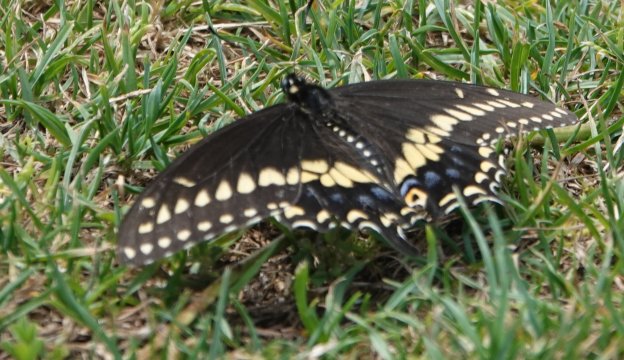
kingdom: Animalia
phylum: Arthropoda
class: Insecta
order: Lepidoptera
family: Papilionidae
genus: Papilio
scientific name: Papilio polyxenes
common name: Black Swallowtail
